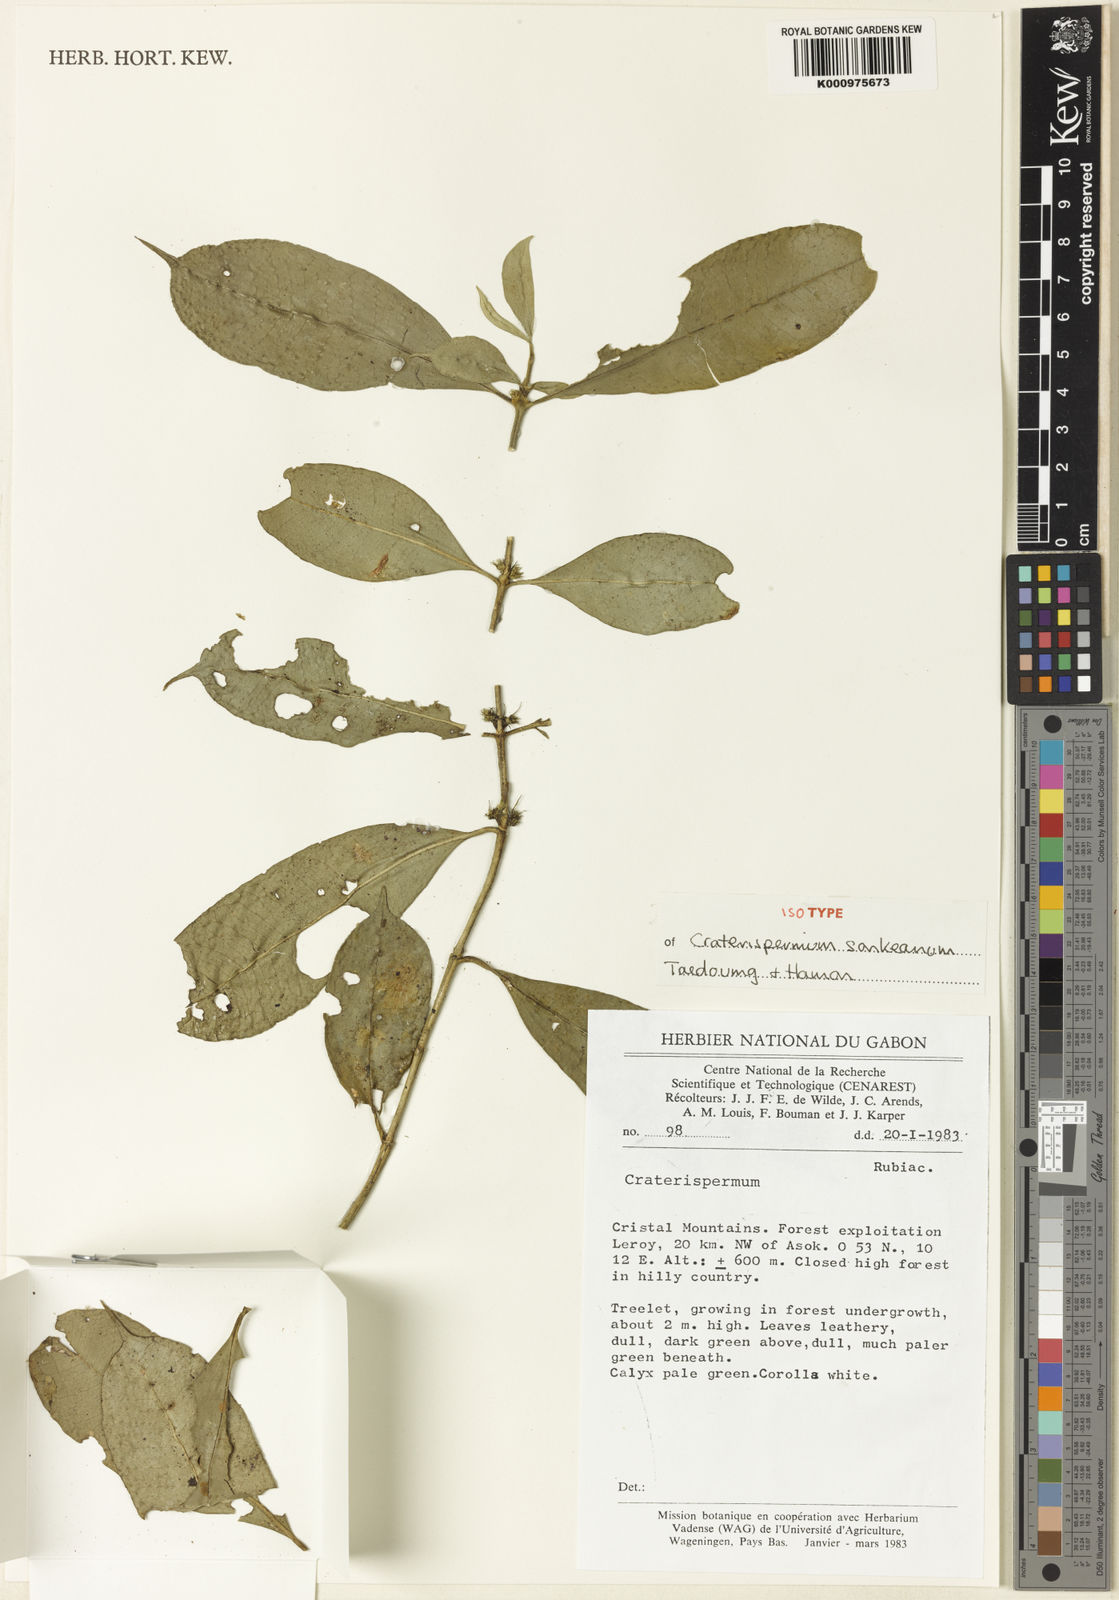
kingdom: Plantae
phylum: Tracheophyta
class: Magnoliopsida
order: Gentianales
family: Rubiaceae
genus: Craterispermum
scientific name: Craterispermum sonkeanum
